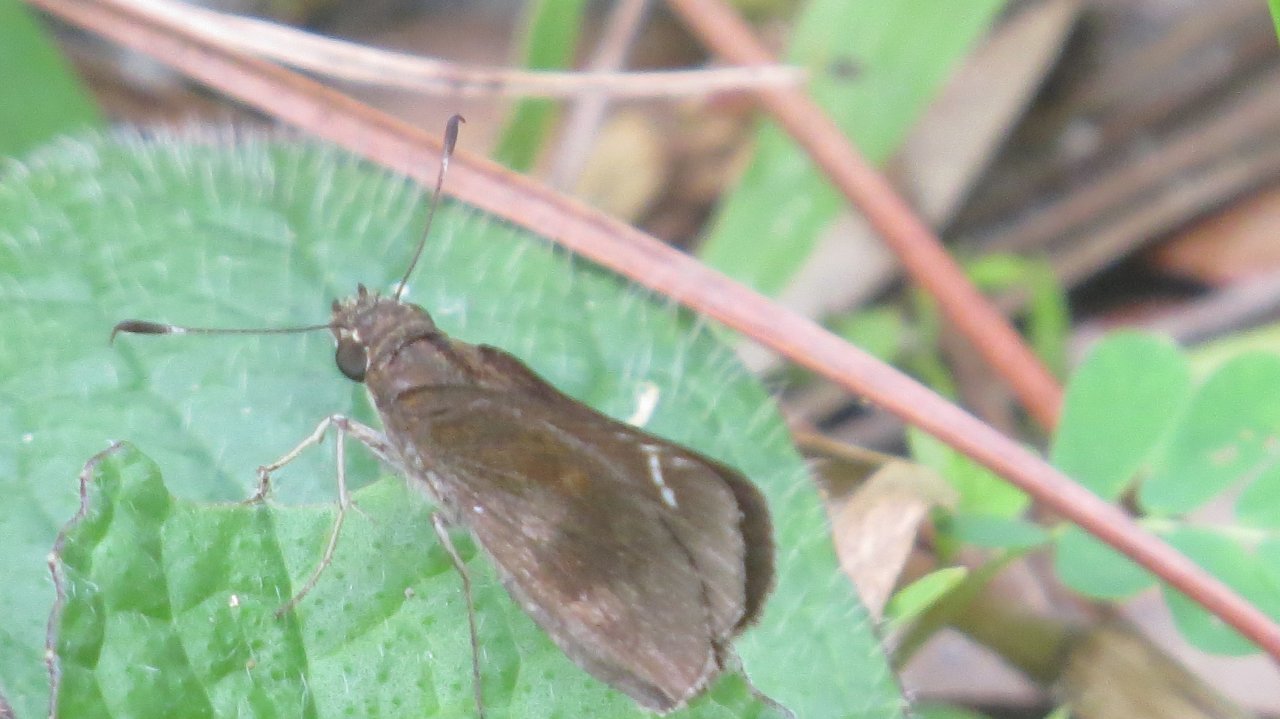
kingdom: Animalia
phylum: Arthropoda
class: Insecta
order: Lepidoptera
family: Hesperiidae
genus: Lerema
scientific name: Lerema accius
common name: Clouded Skipper
